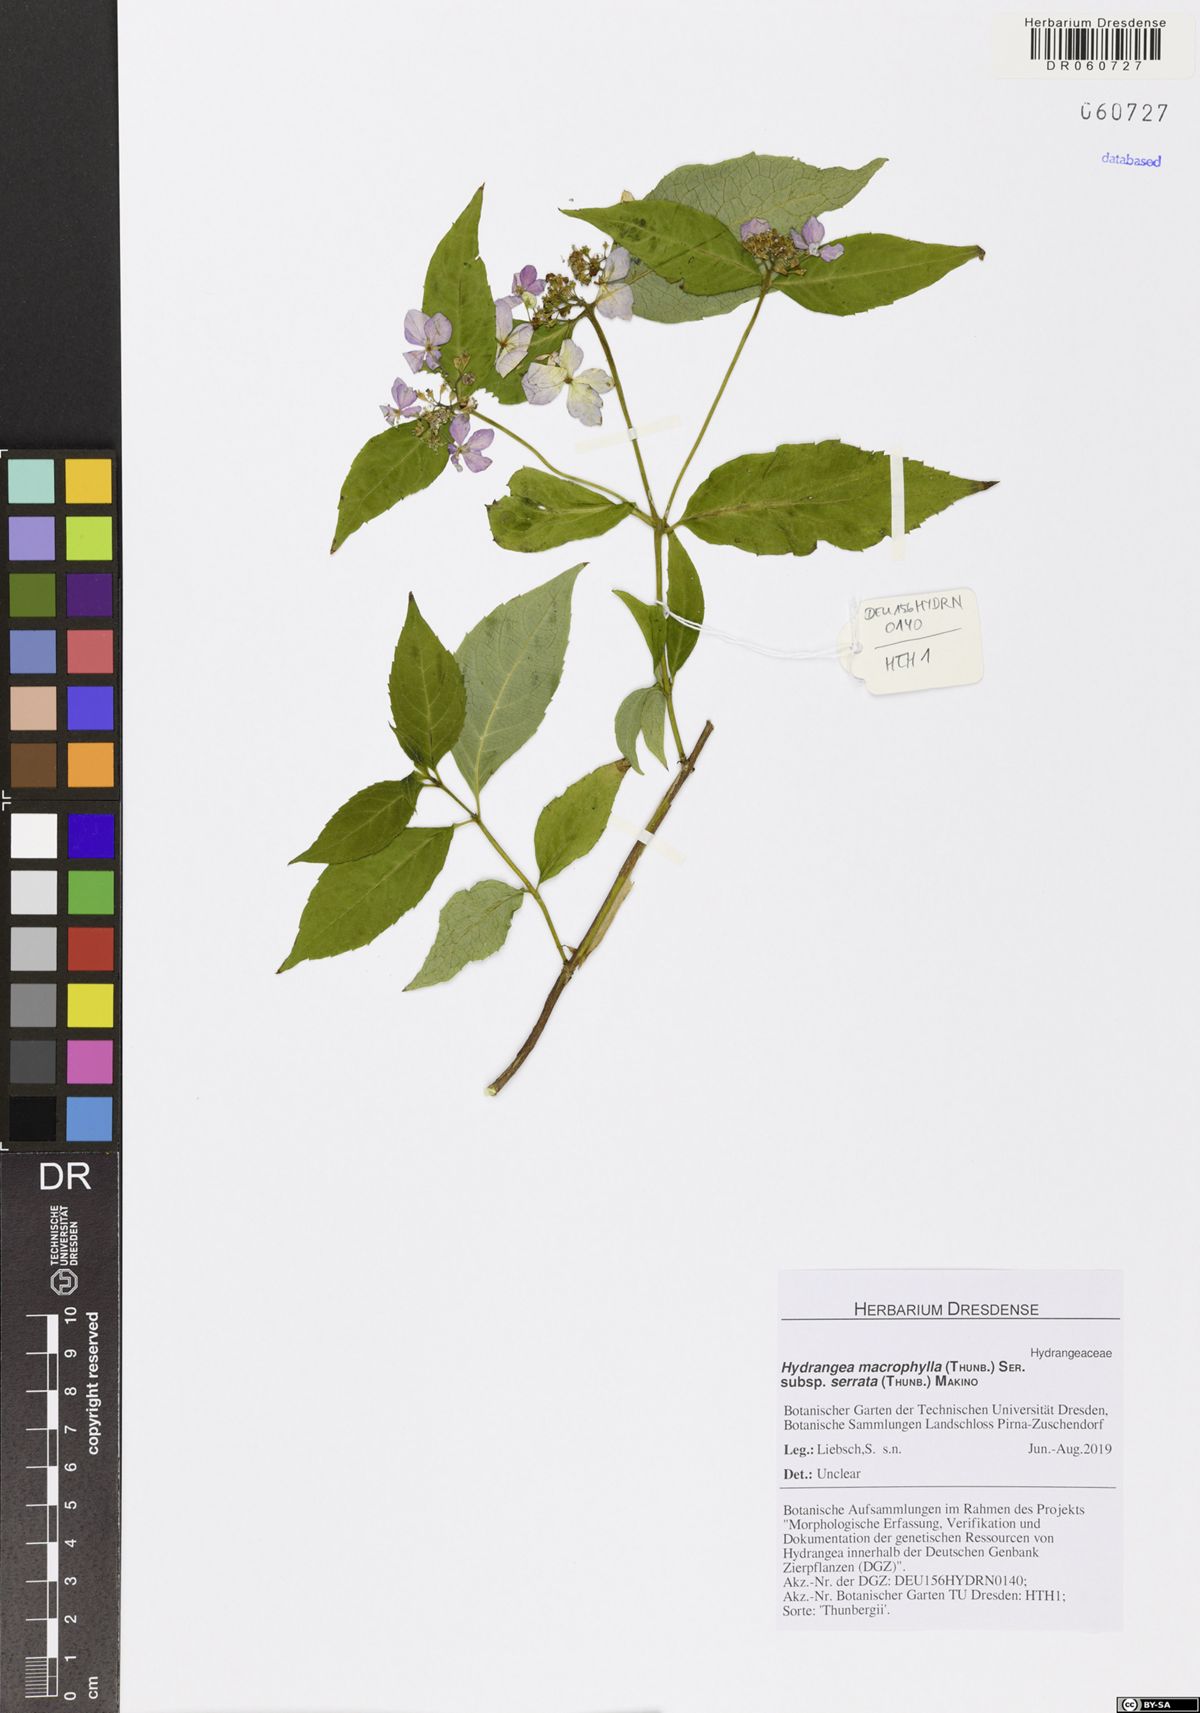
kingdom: Plantae
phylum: Tracheophyta
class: Magnoliopsida
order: Cornales
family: Hydrangeaceae
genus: Hydrangea
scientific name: Hydrangea serrata
